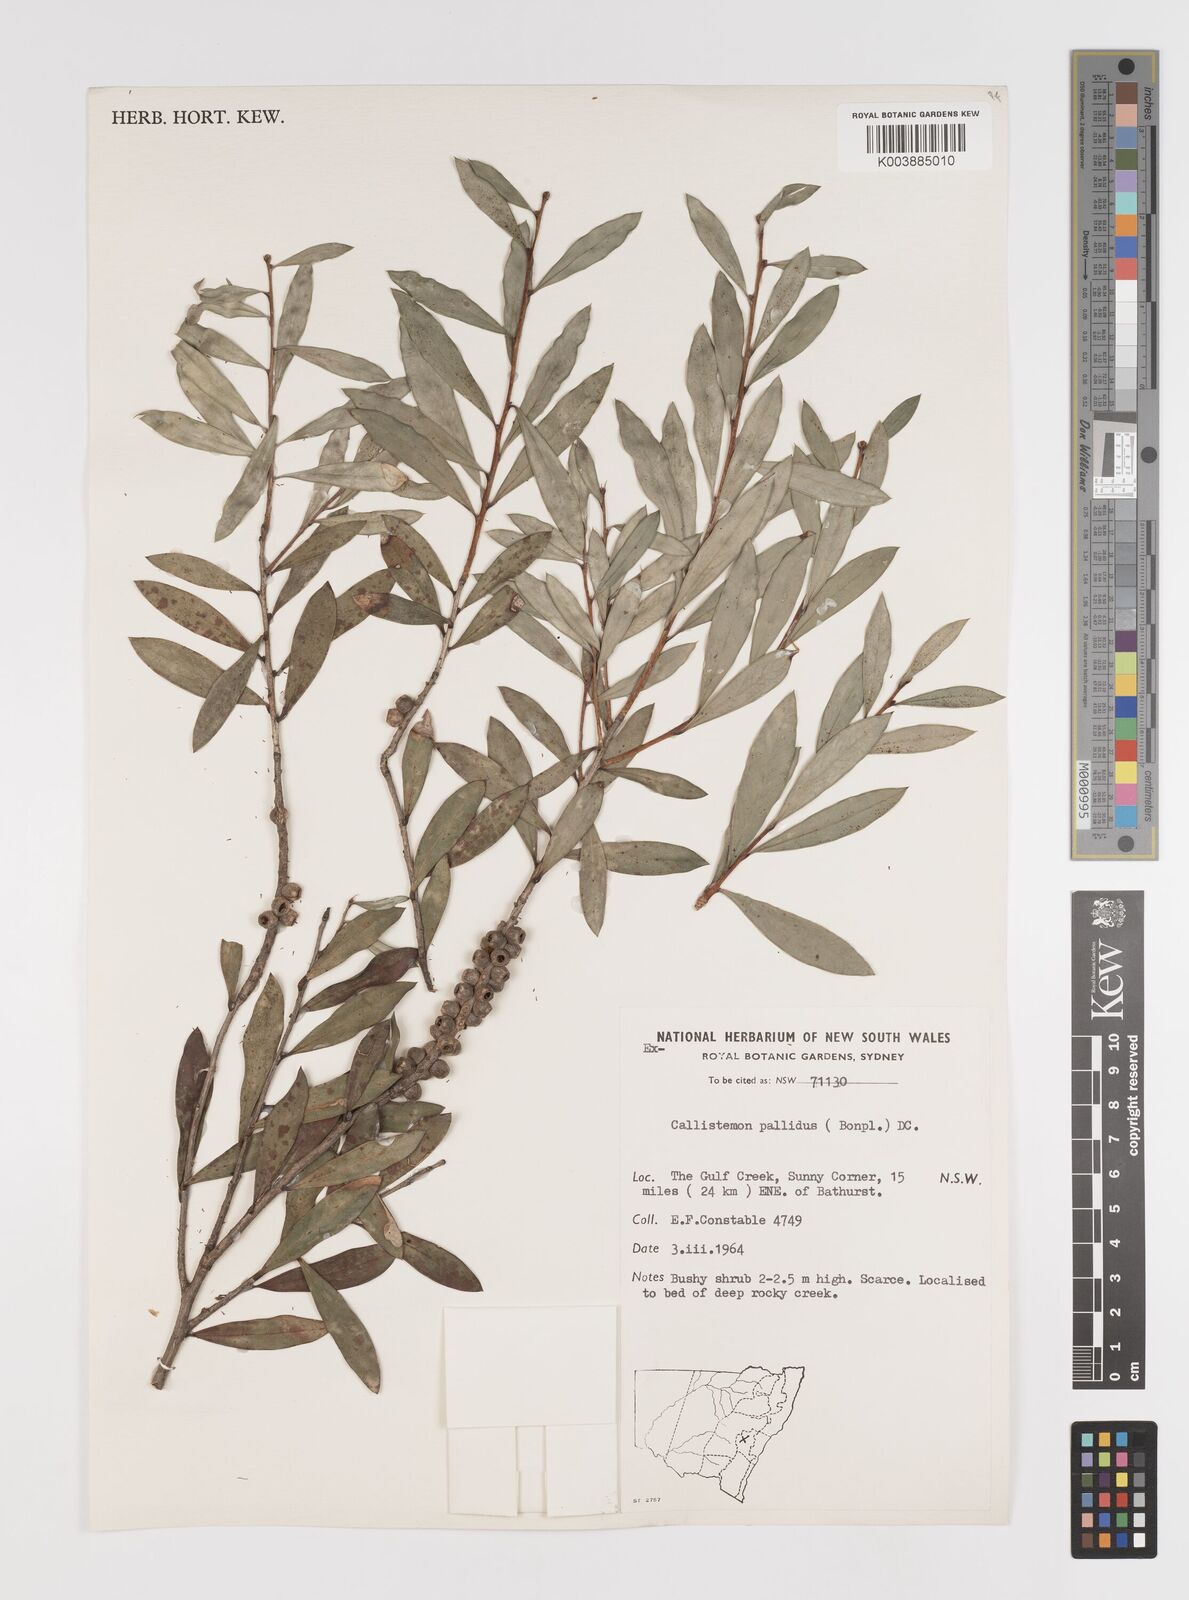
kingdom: Plantae
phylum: Tracheophyta
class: Magnoliopsida
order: Myrtales
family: Myrtaceae
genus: Melaleuca
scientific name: Melaleuca pallida
